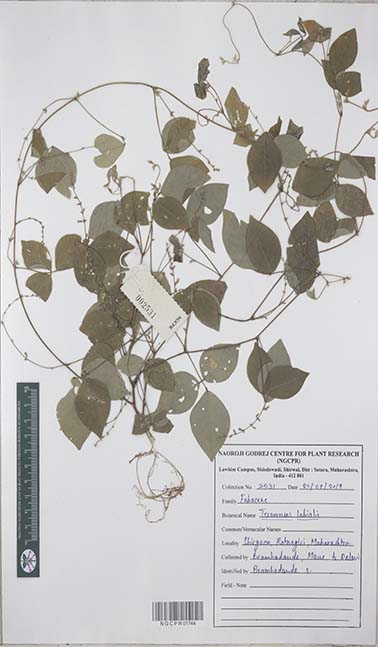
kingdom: Plantae
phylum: Tracheophyta
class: Magnoliopsida
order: Fabales
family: Fabaceae
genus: Teramnus
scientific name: Teramnus labialis
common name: Blue wiss
